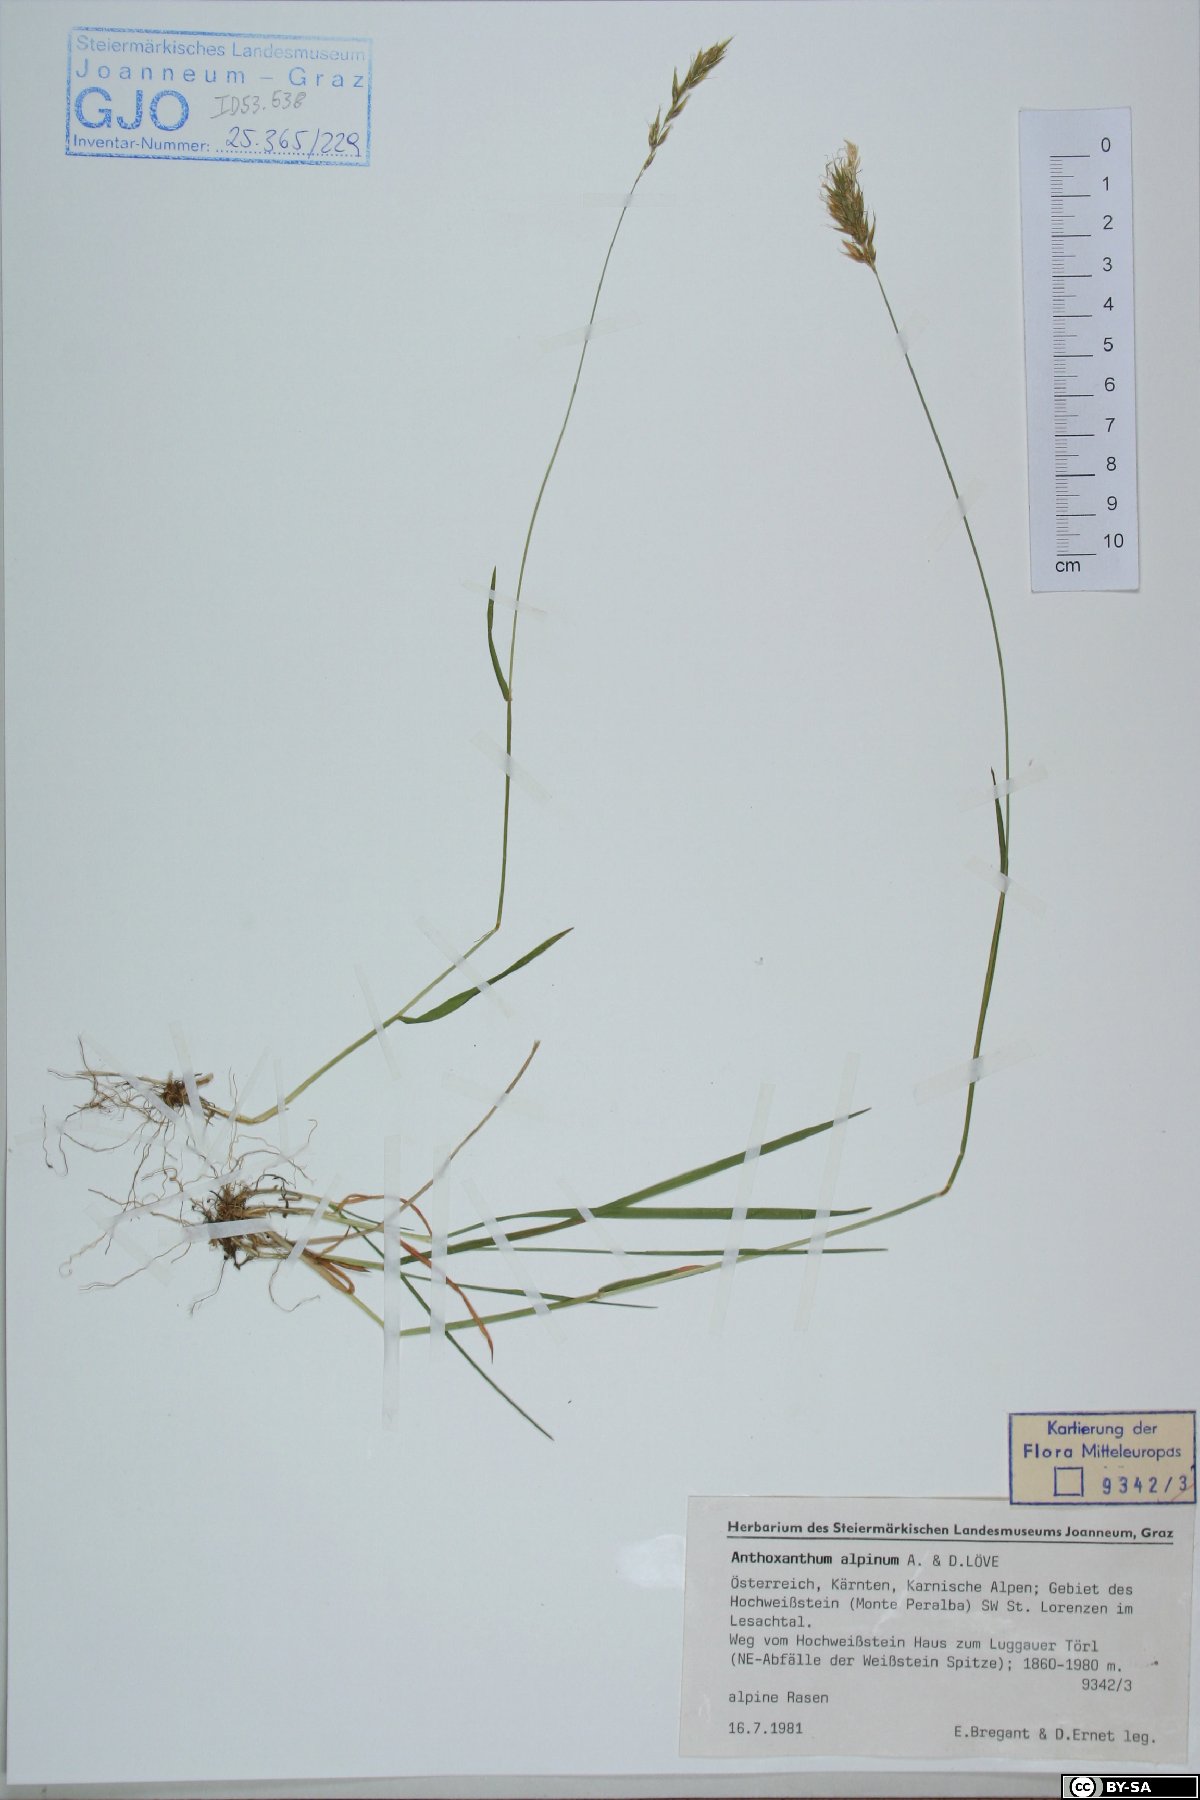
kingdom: Plantae
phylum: Tracheophyta
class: Liliopsida
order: Poales
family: Poaceae
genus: Anthoxanthum
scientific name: Anthoxanthum nipponicum
